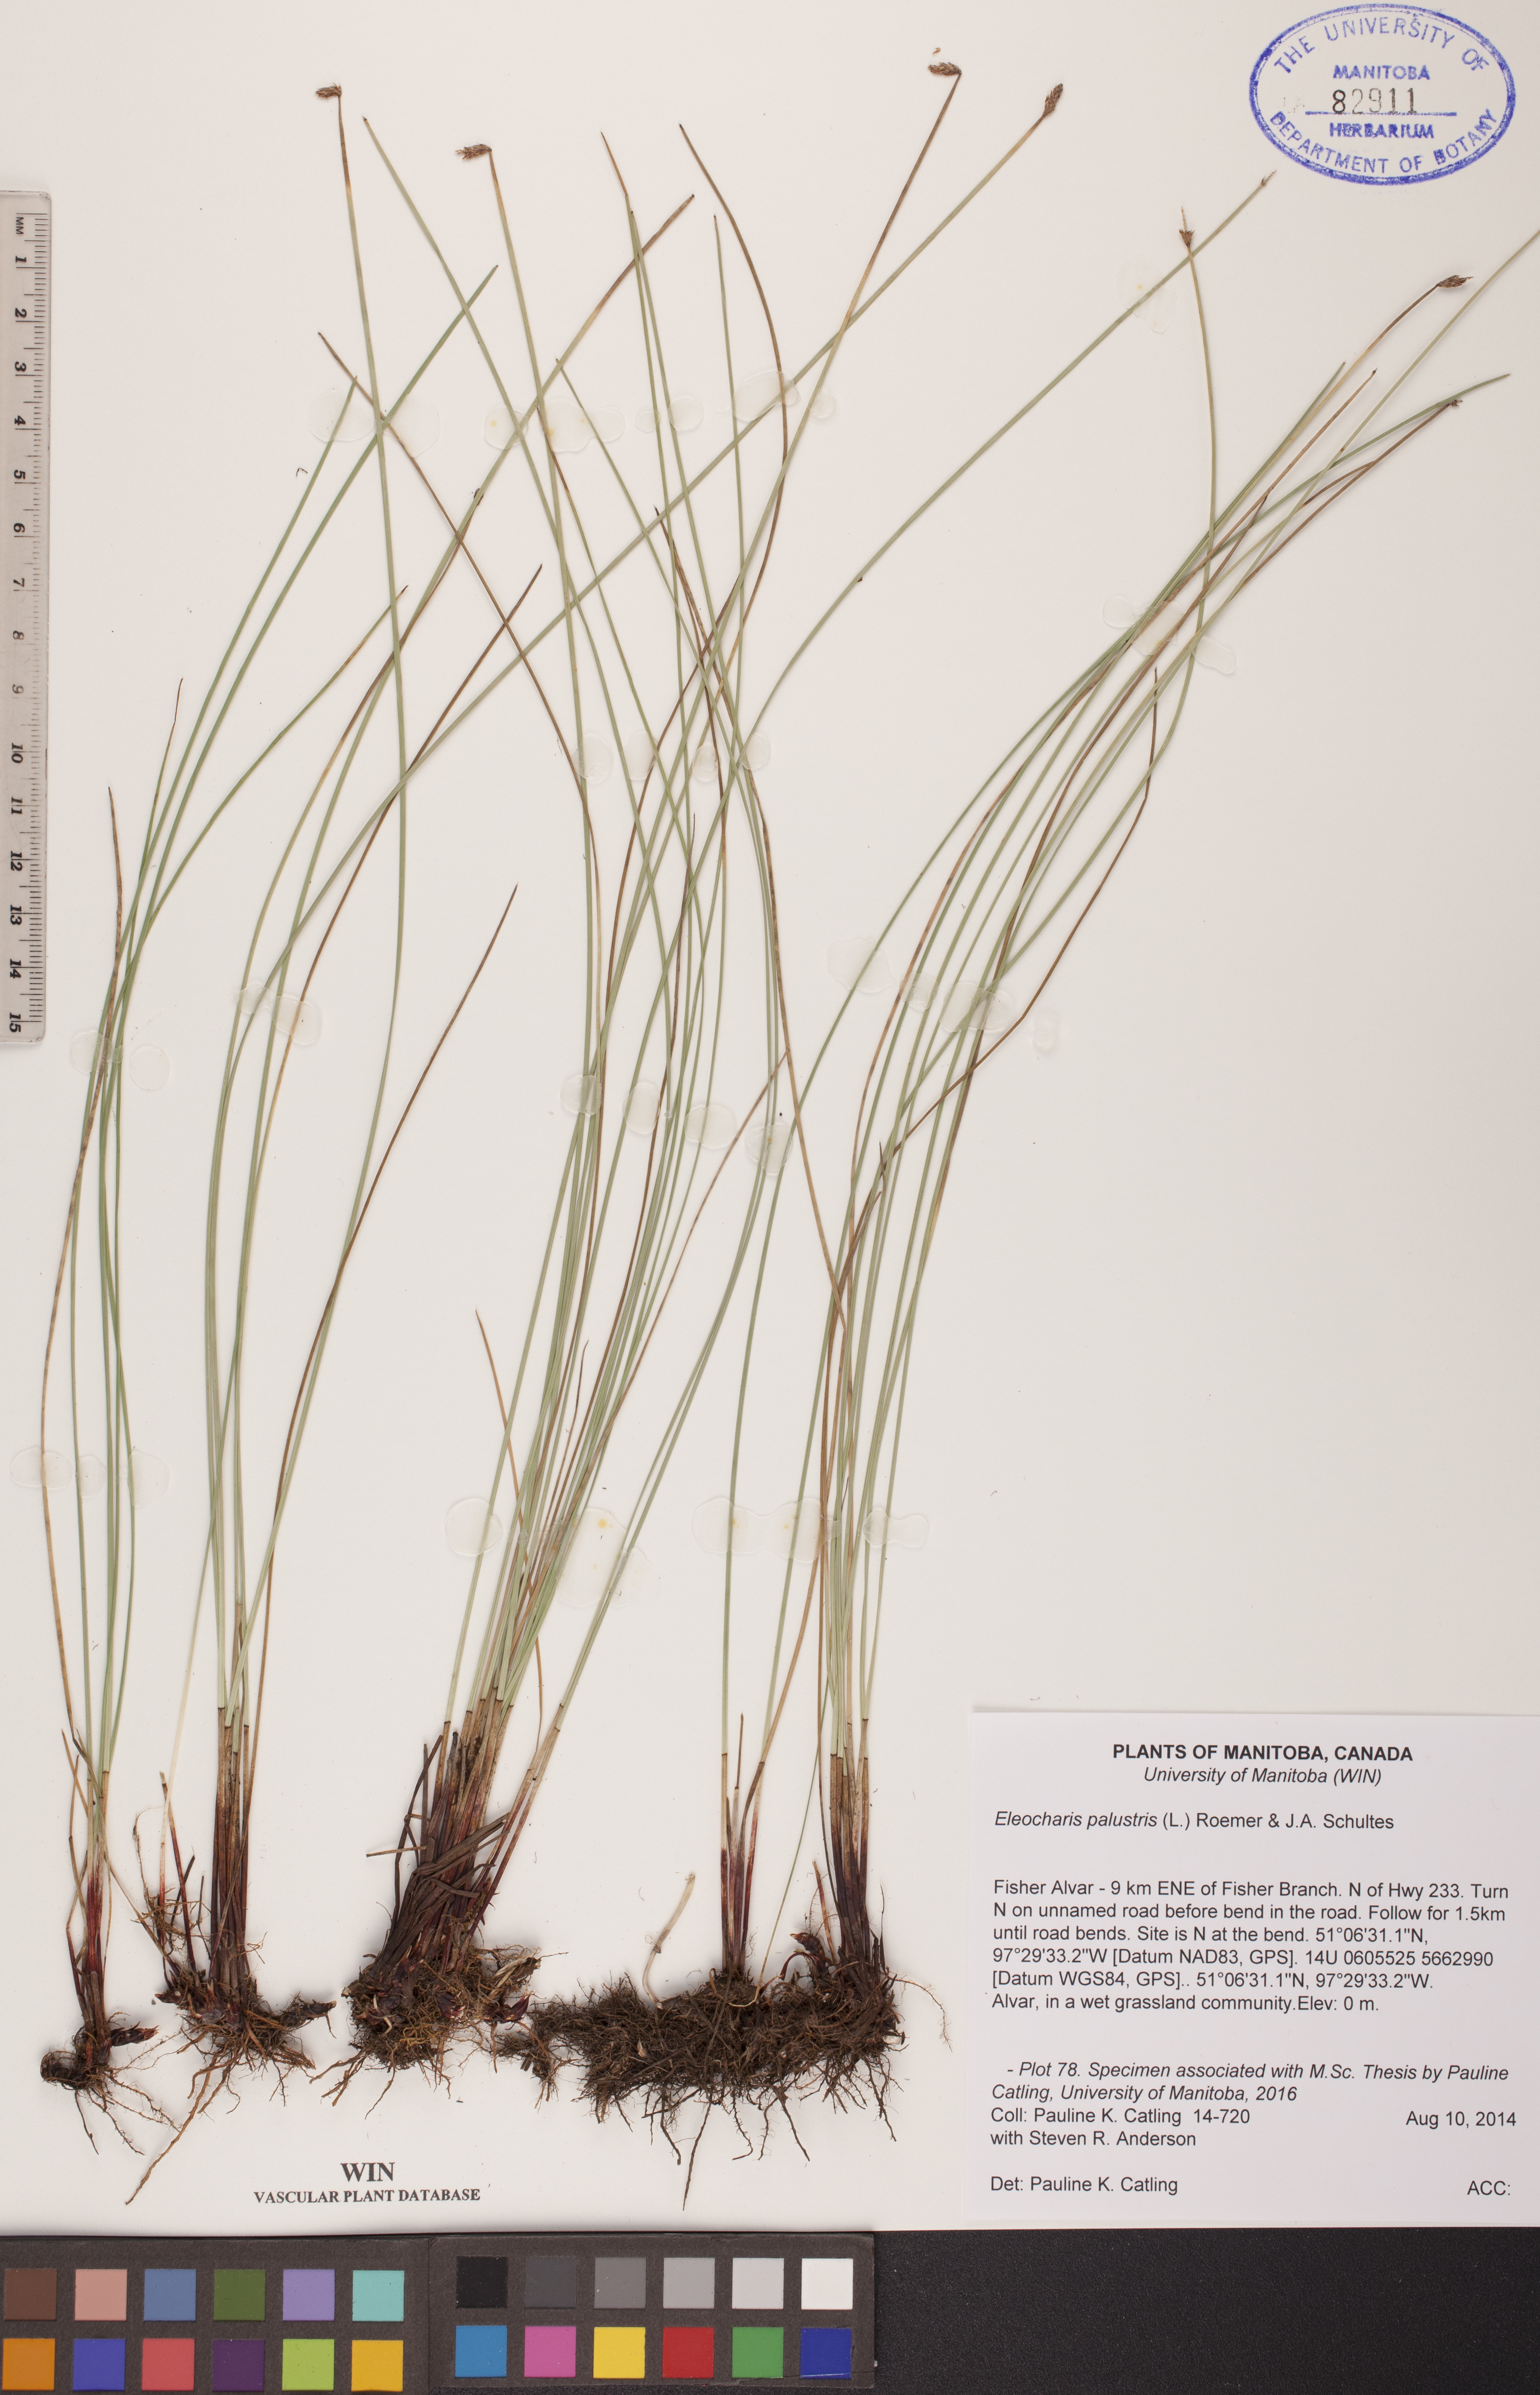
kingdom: Plantae
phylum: Tracheophyta
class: Liliopsida
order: Poales
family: Cyperaceae
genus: Eleocharis
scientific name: Eleocharis palustris
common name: Common spike-rush
